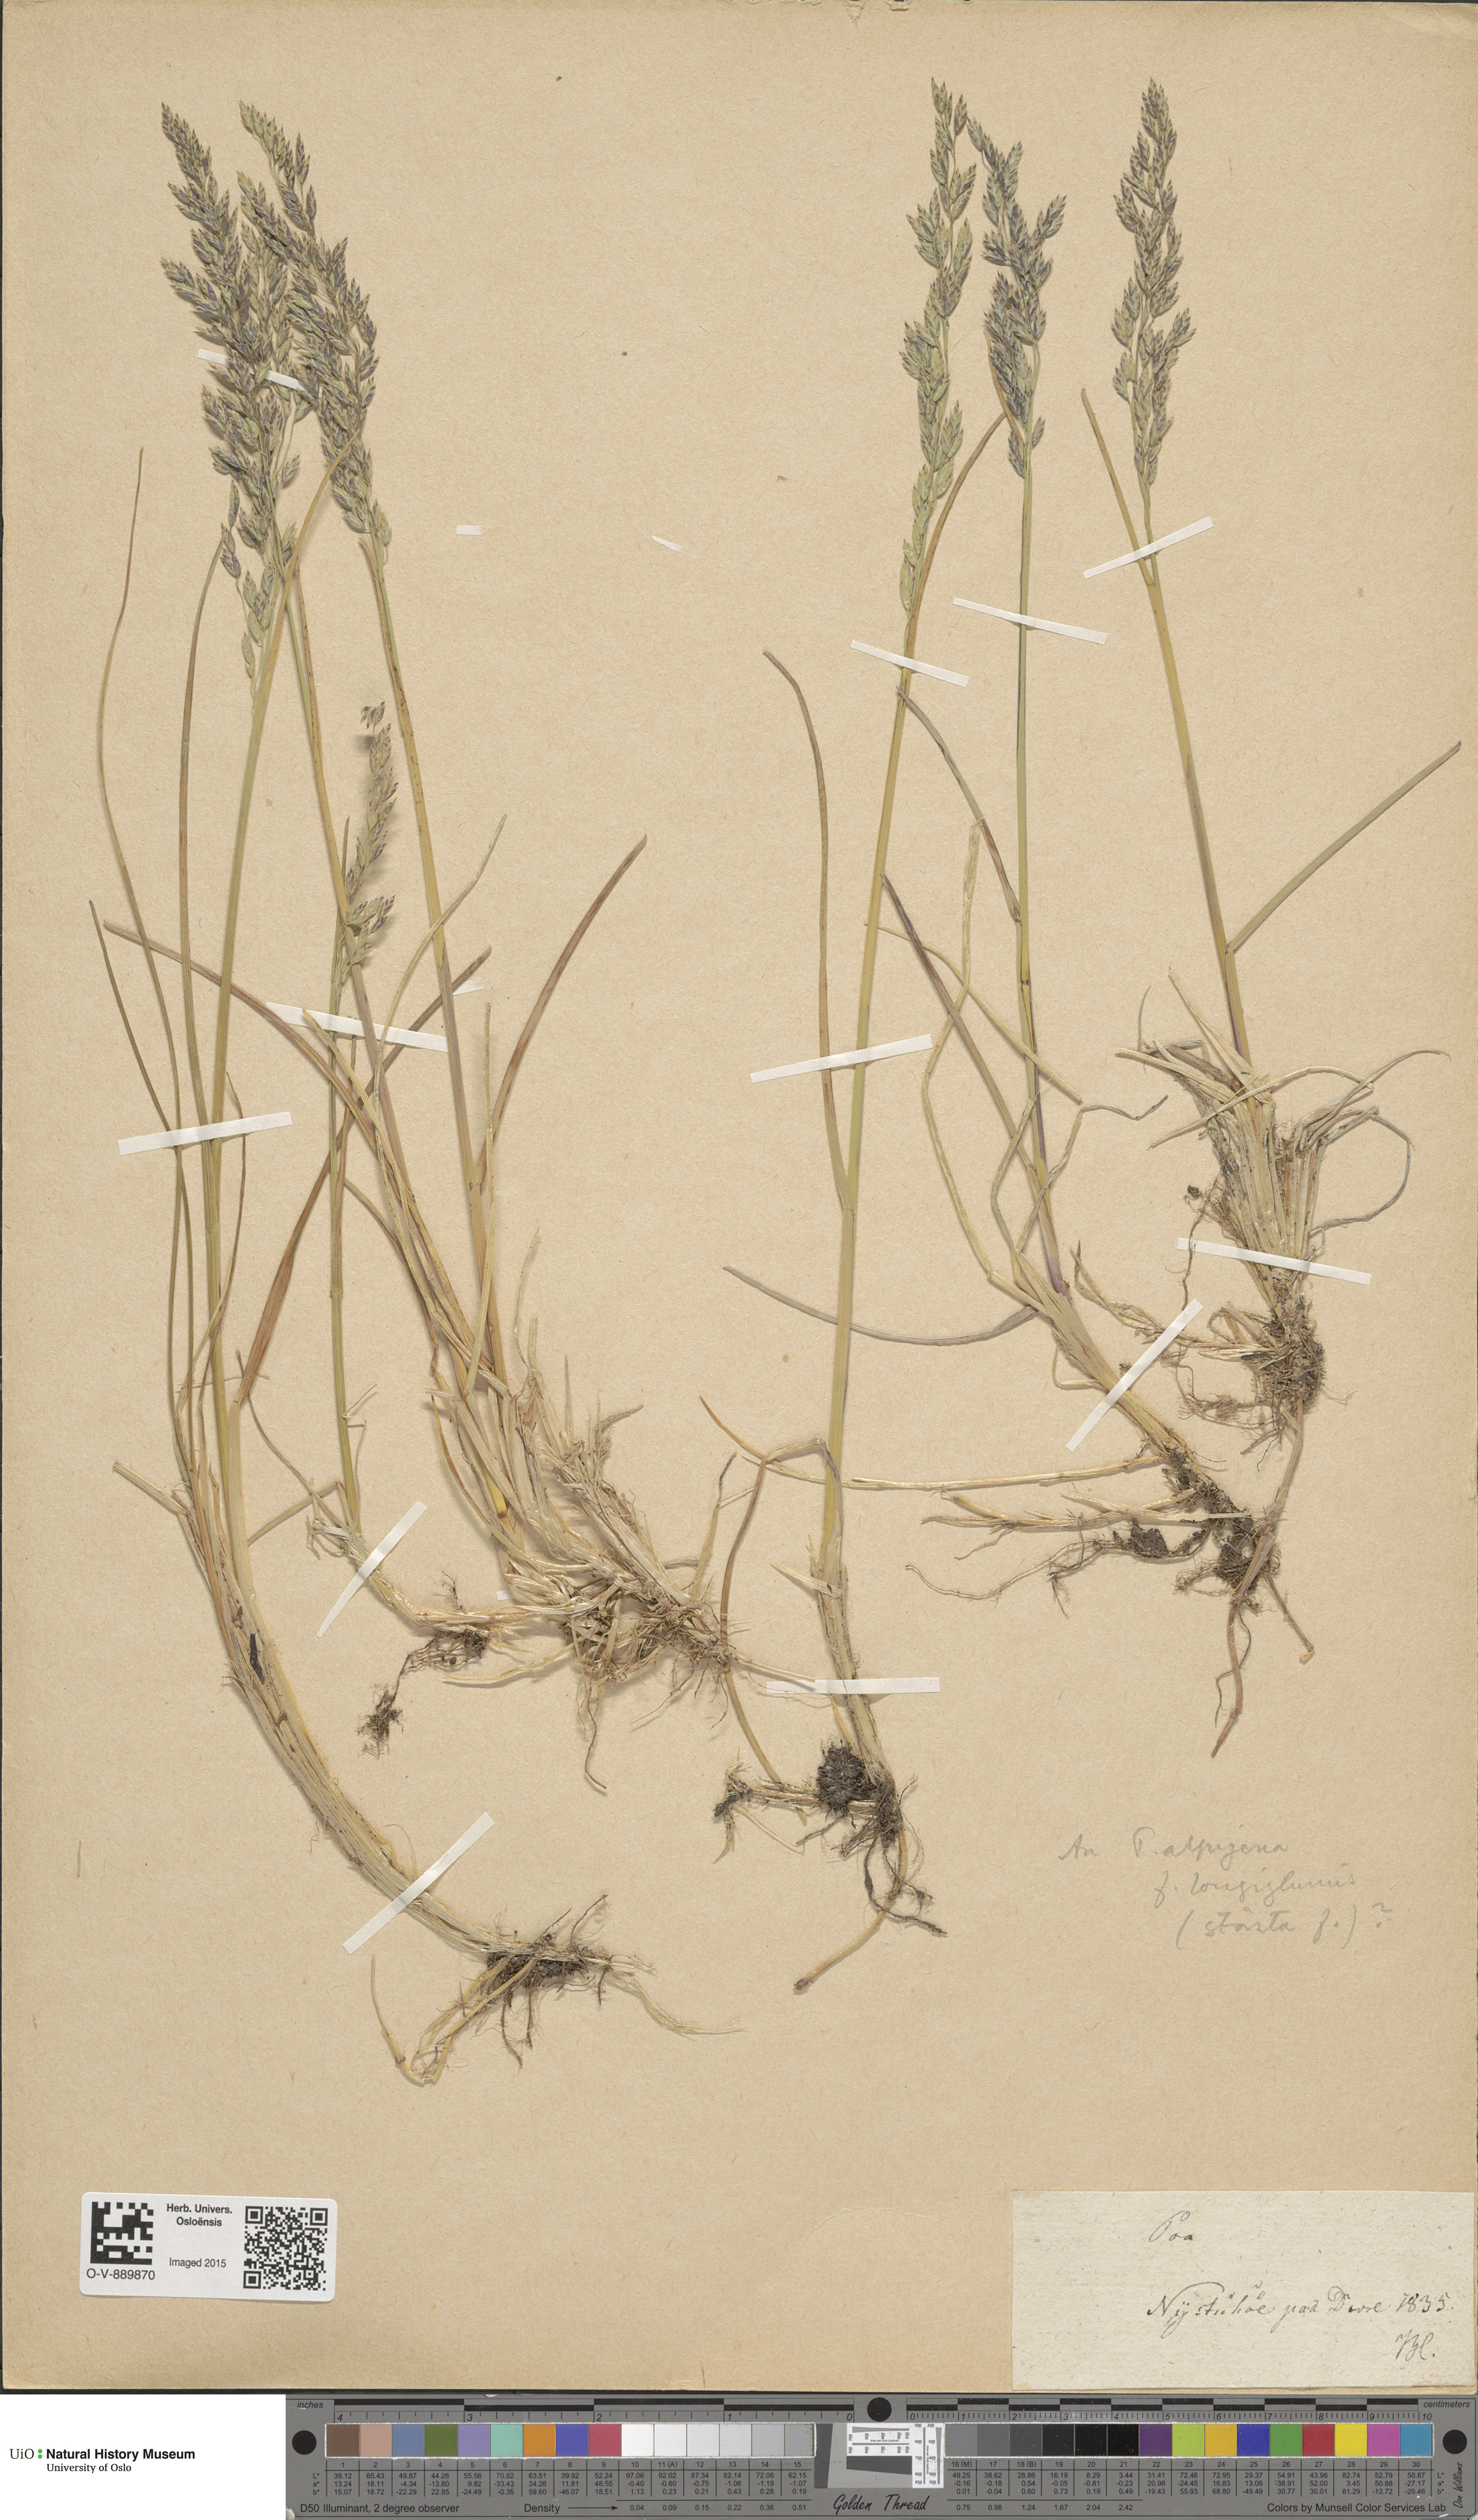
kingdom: Plantae
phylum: Tracheophyta
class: Liliopsida
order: Poales
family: Poaceae
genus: Poa
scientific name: Poa alpigena
